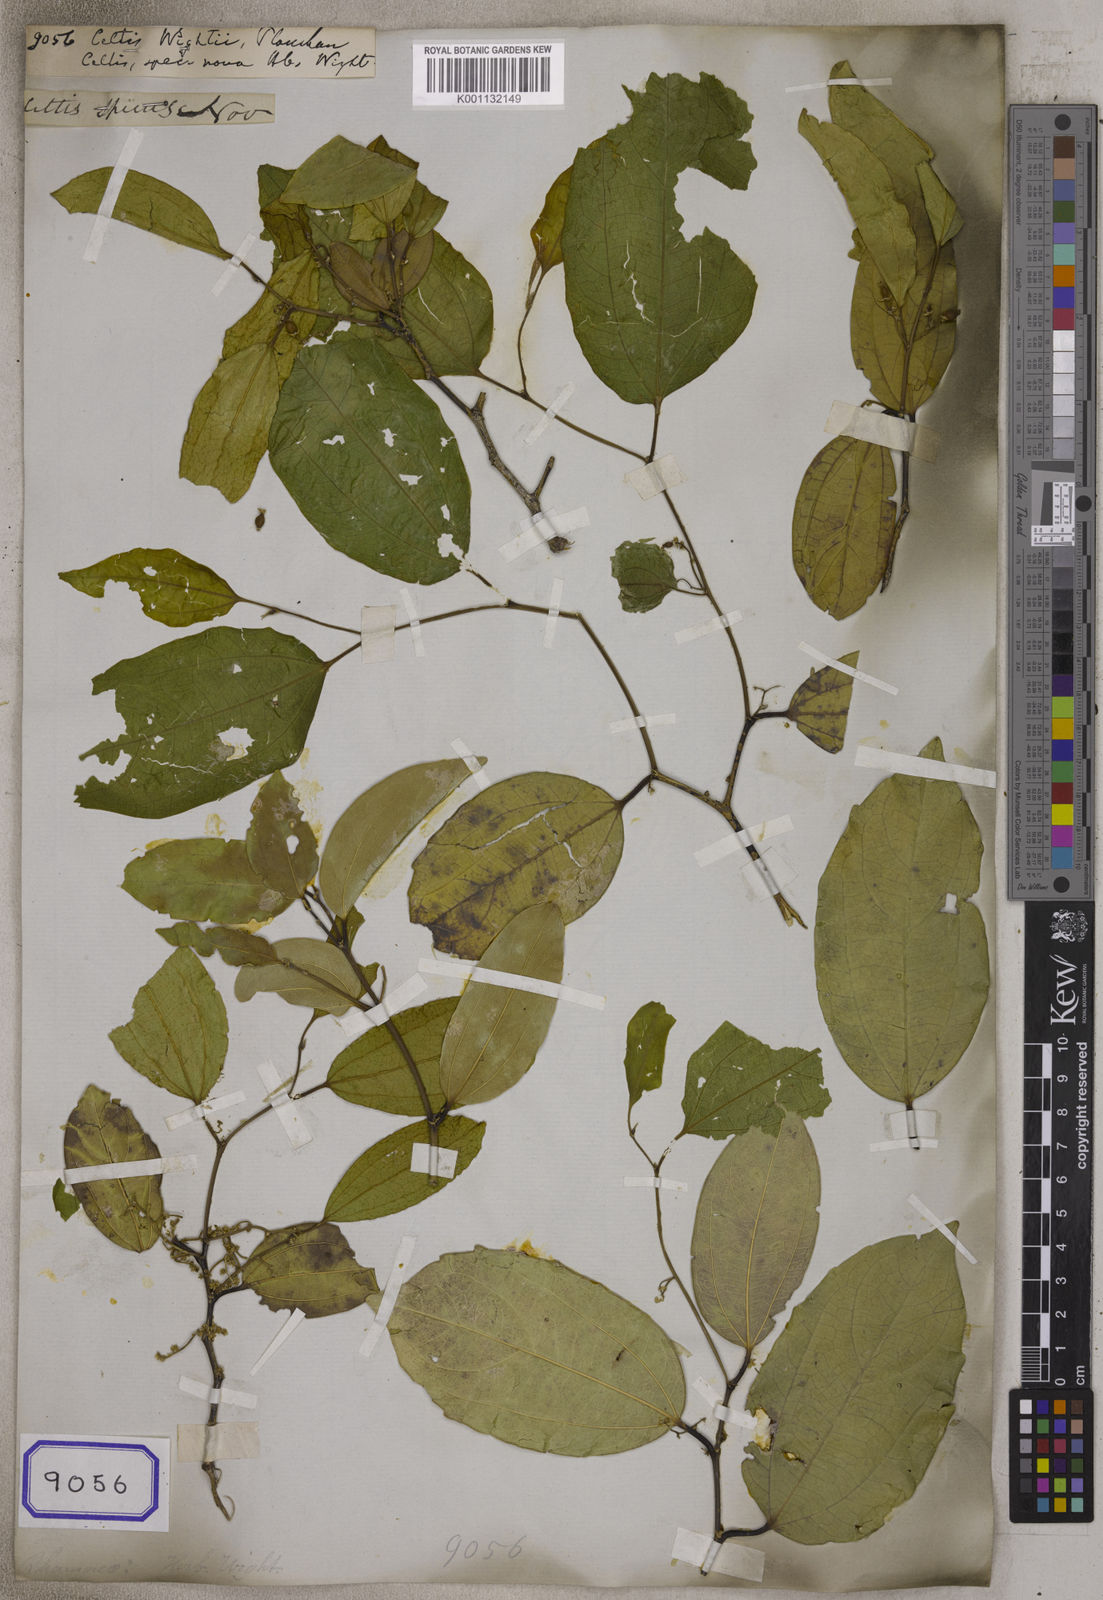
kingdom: Plantae
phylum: Tracheophyta
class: Magnoliopsida
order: Rosales
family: Cannabaceae
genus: Celtis
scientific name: Celtis philippensis
